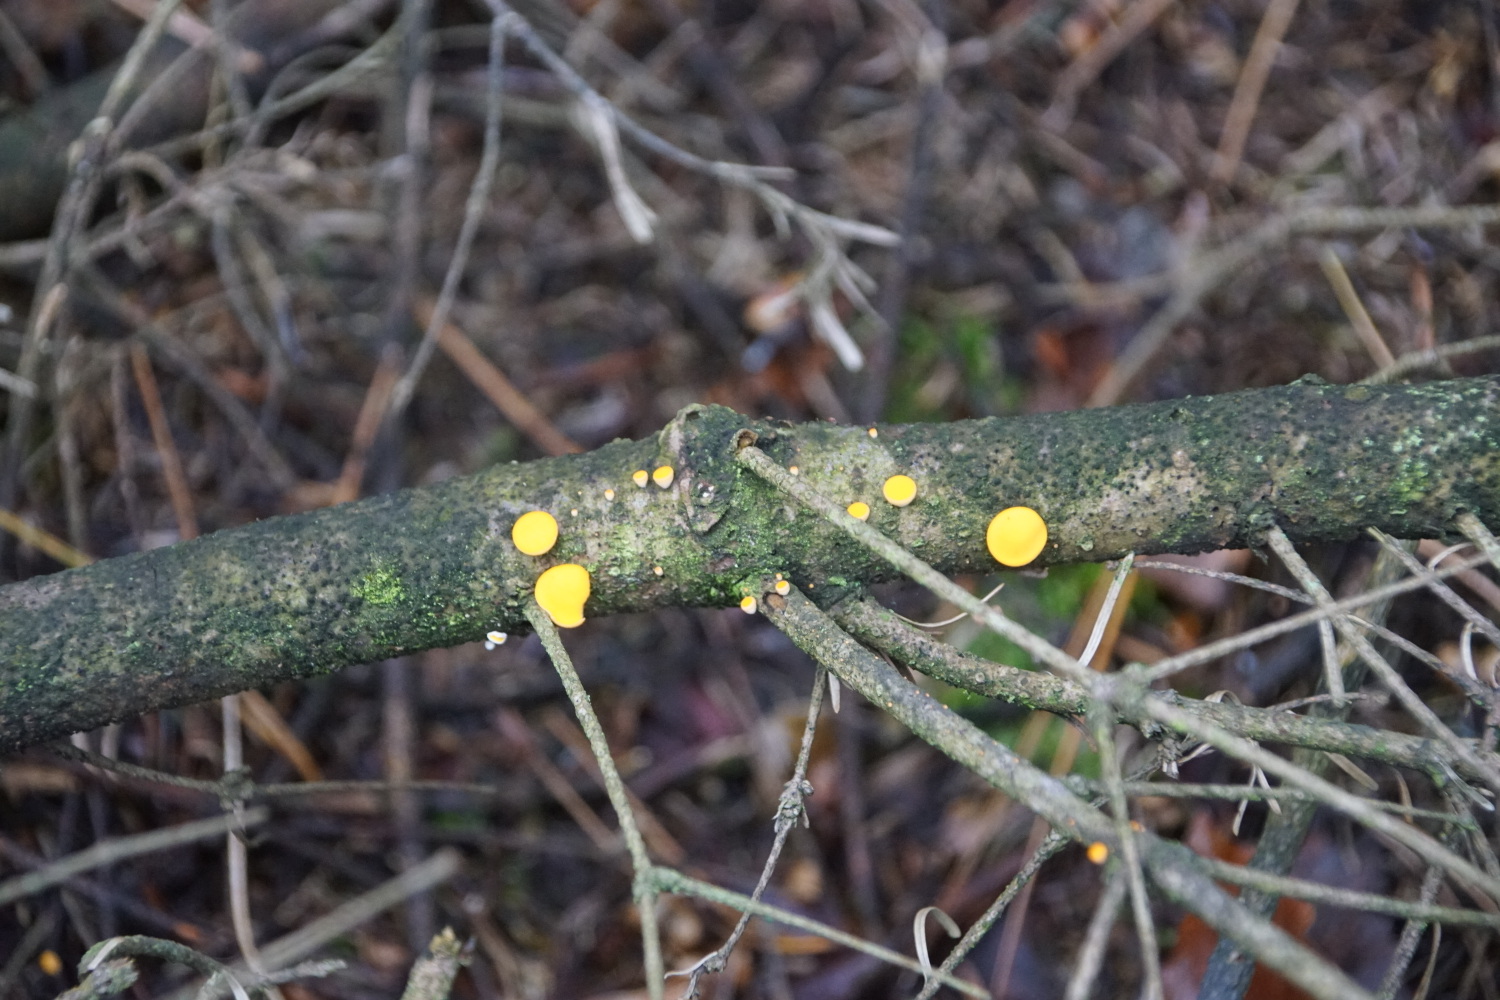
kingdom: Fungi
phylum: Ascomycota
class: Pezizomycetes
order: Pezizales
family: Sarcoscyphaceae
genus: Pithya
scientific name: Pithya vulgaris
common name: stor dukatbæger
